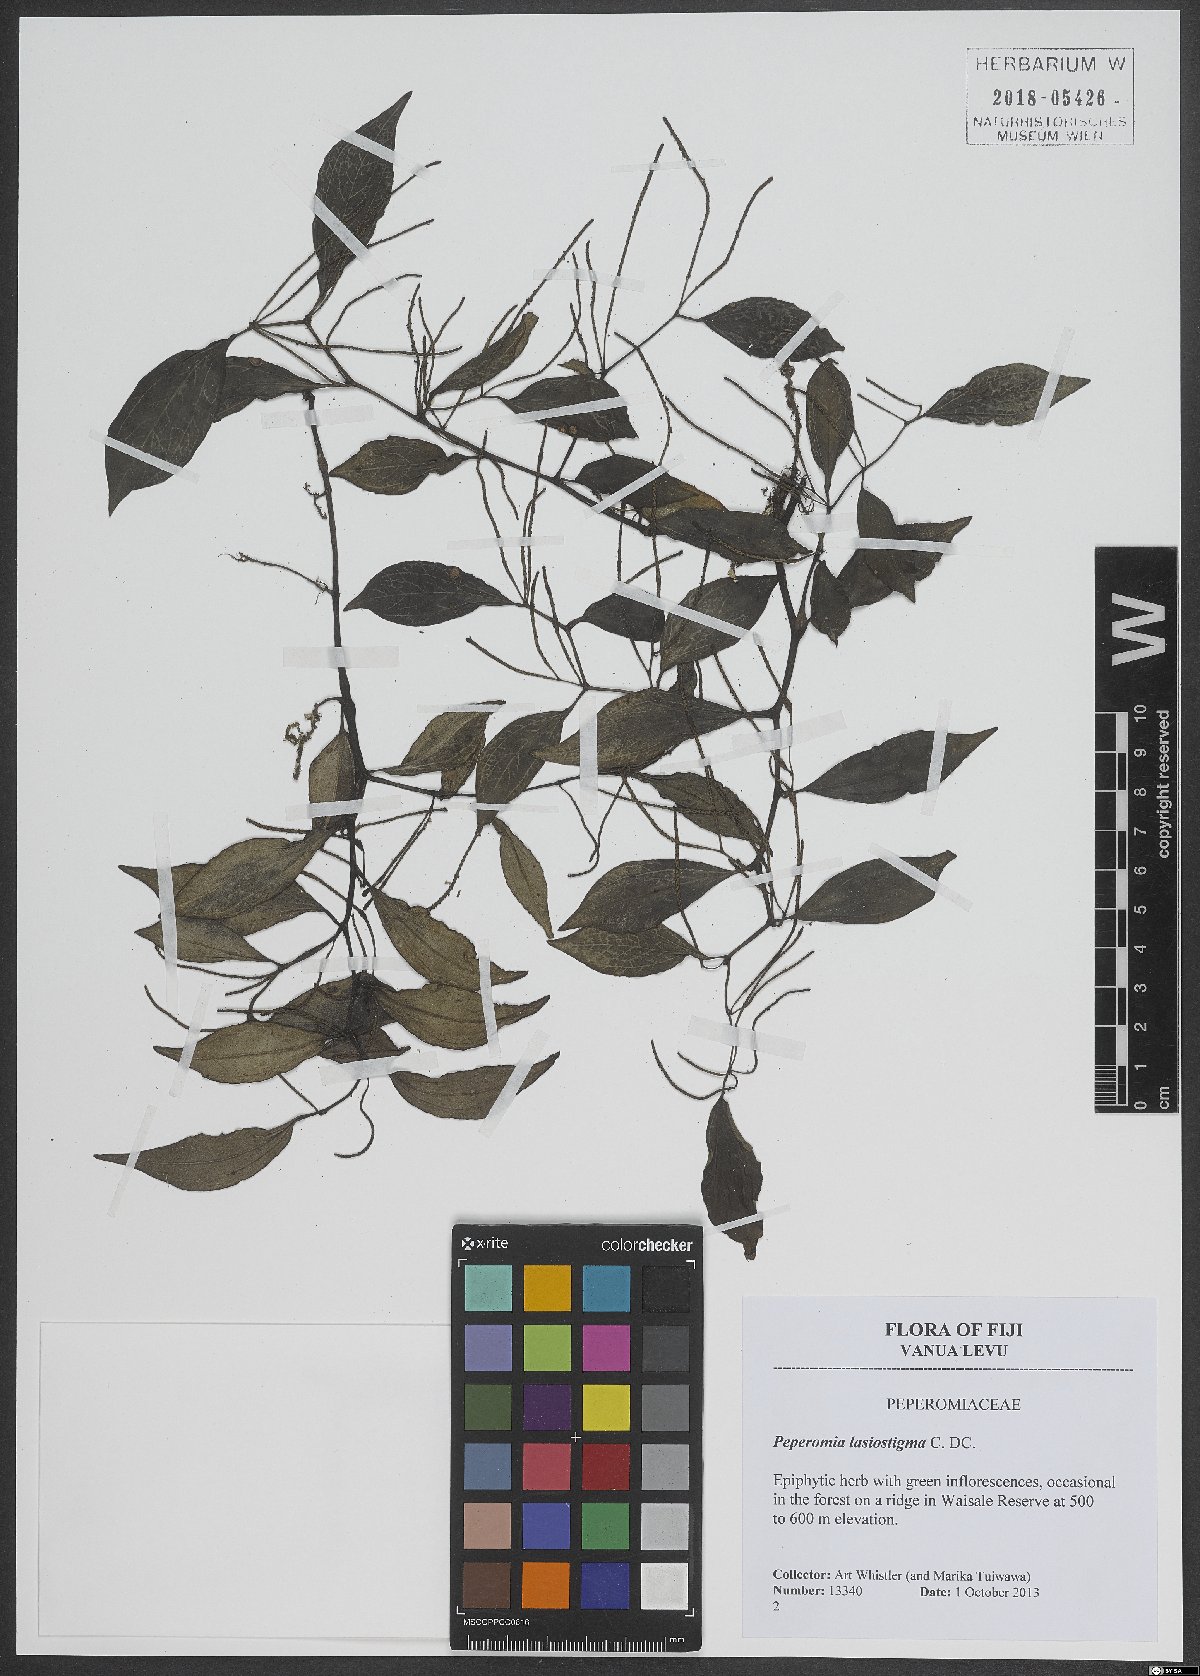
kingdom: Plantae
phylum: Tracheophyta
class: Magnoliopsida
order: Piperales
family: Piperaceae
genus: Peperomia
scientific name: Peperomia lasiostigma
